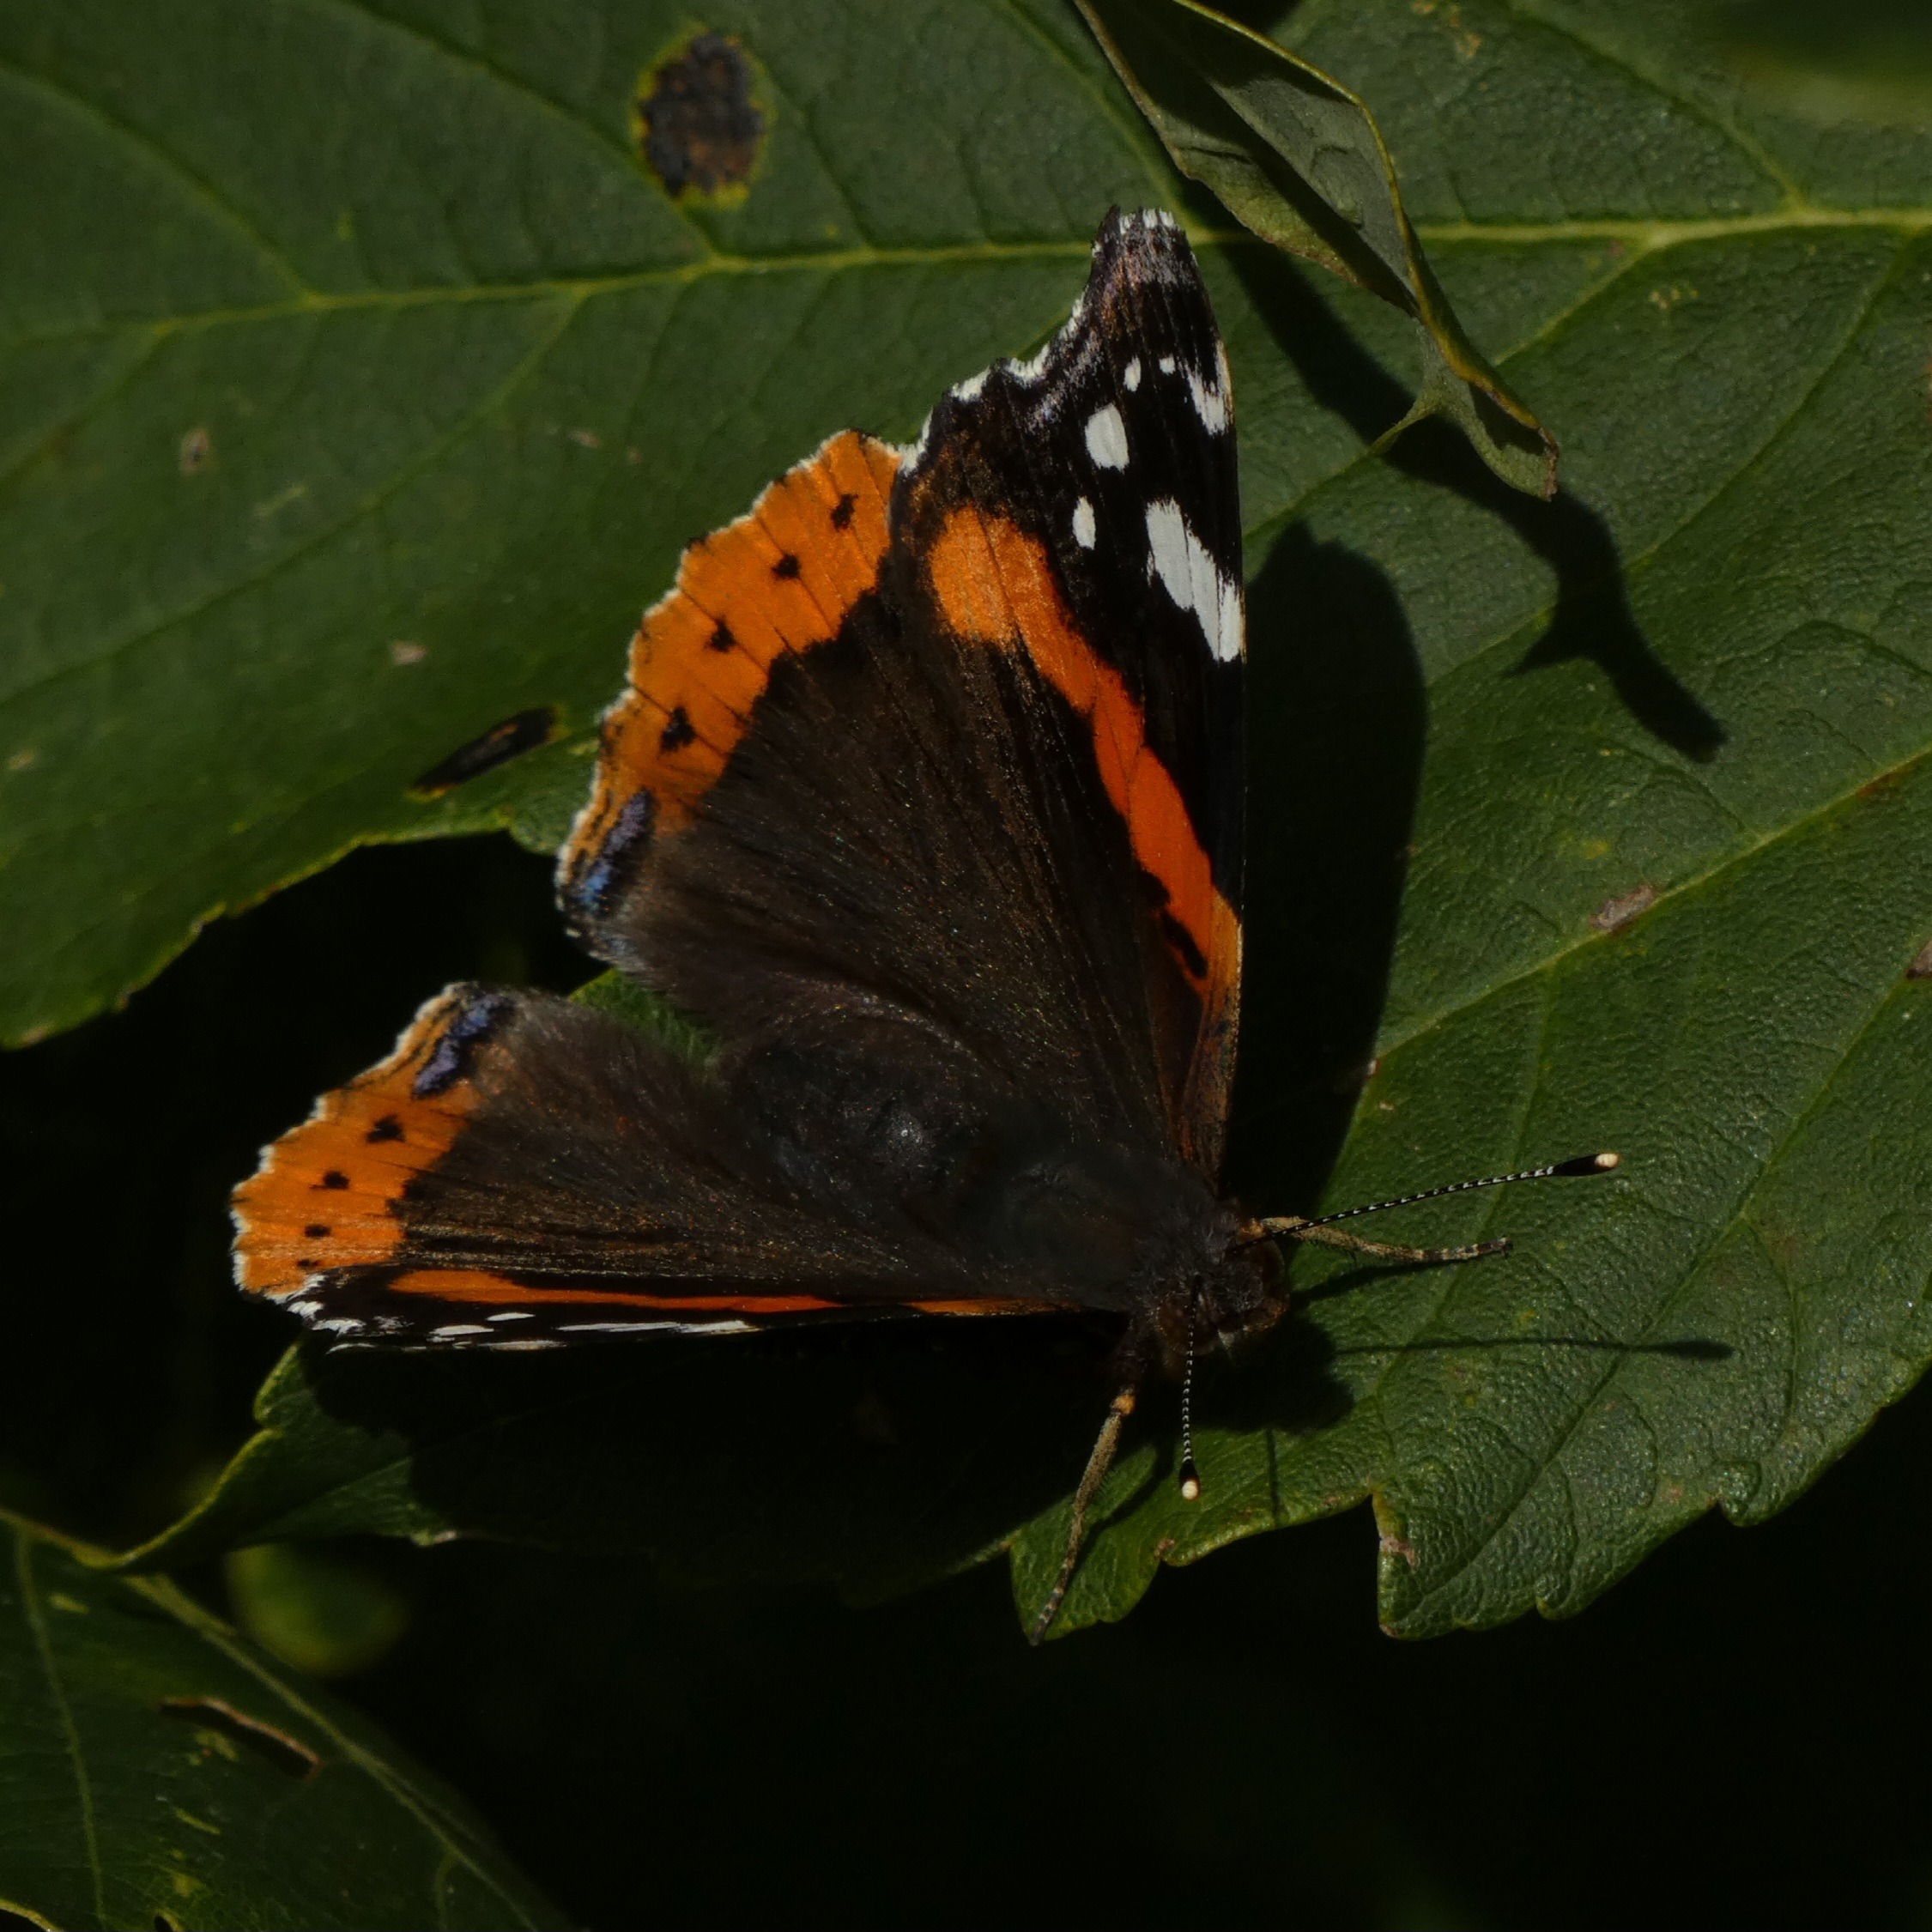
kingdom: Animalia
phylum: Arthropoda
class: Insecta
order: Lepidoptera
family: Nymphalidae
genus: Vanessa
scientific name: Vanessa atalanta
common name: Admiral
